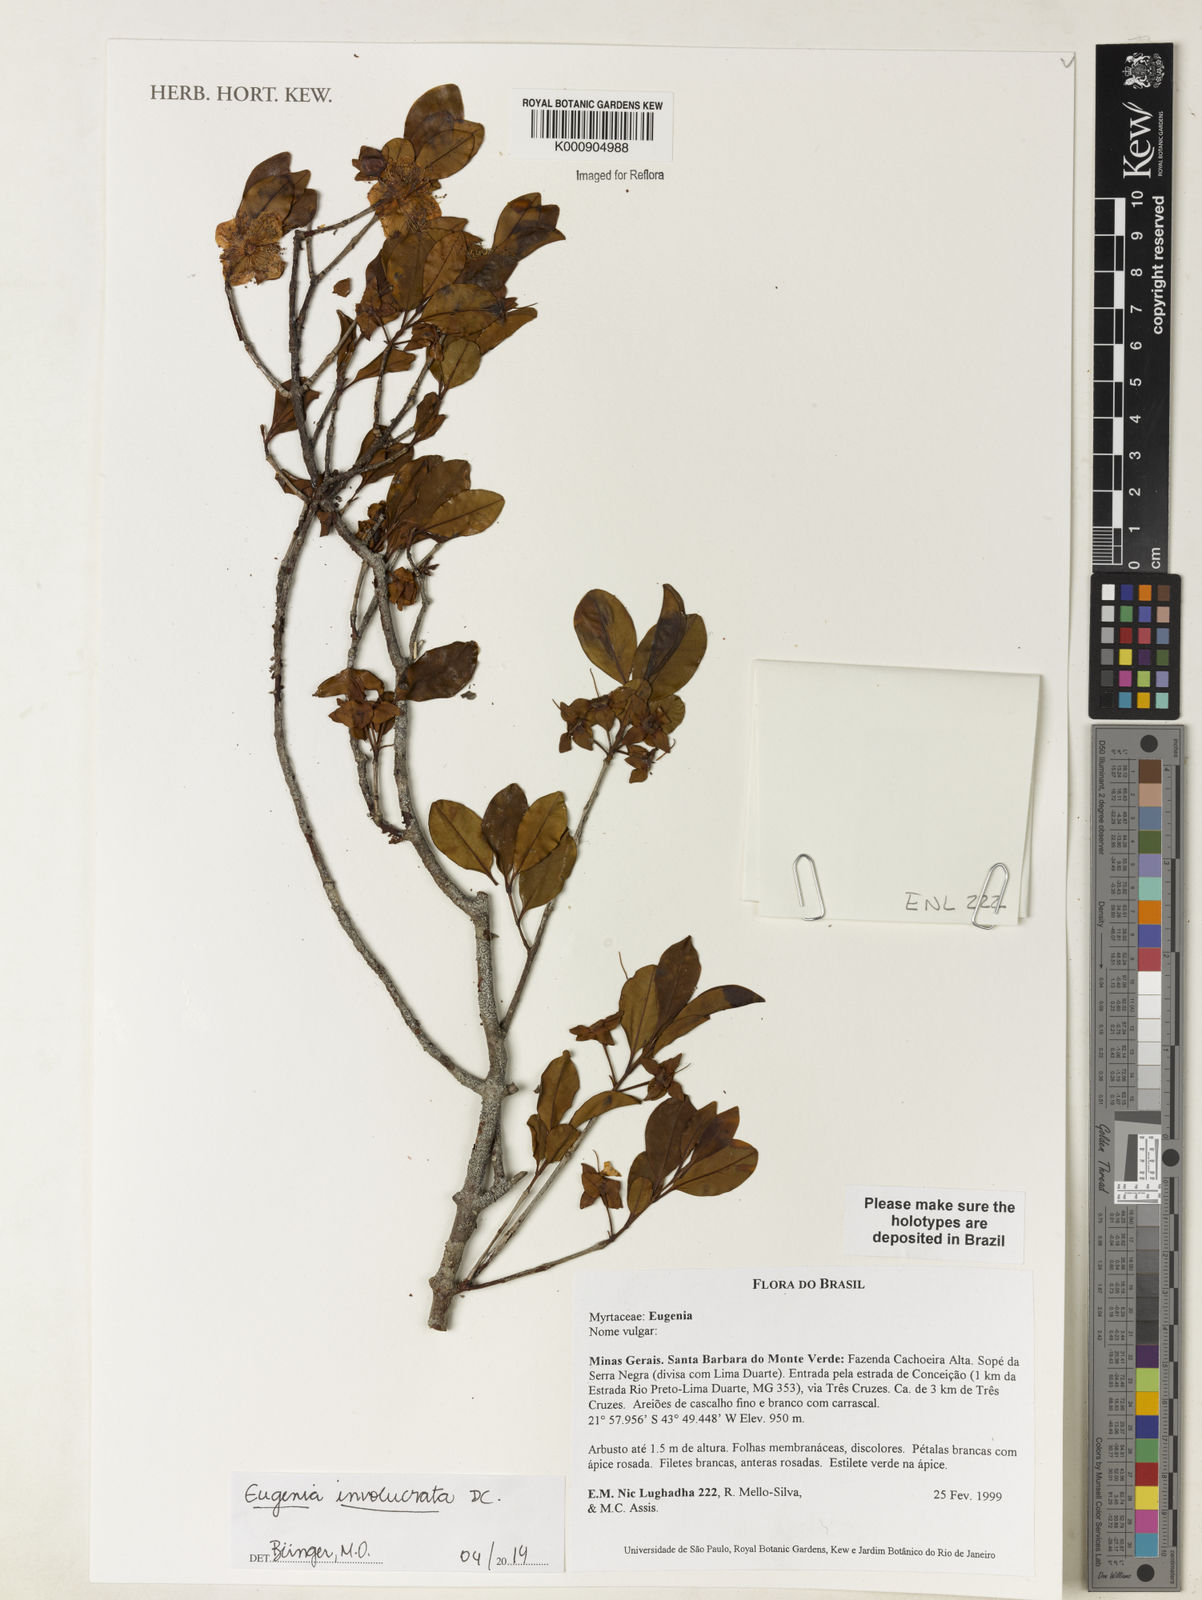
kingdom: Plantae
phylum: Tracheophyta
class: Magnoliopsida
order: Myrtales
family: Myrtaceae
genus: Eugenia
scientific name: Eugenia involucrata
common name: Cherry-of-the-rio grande
